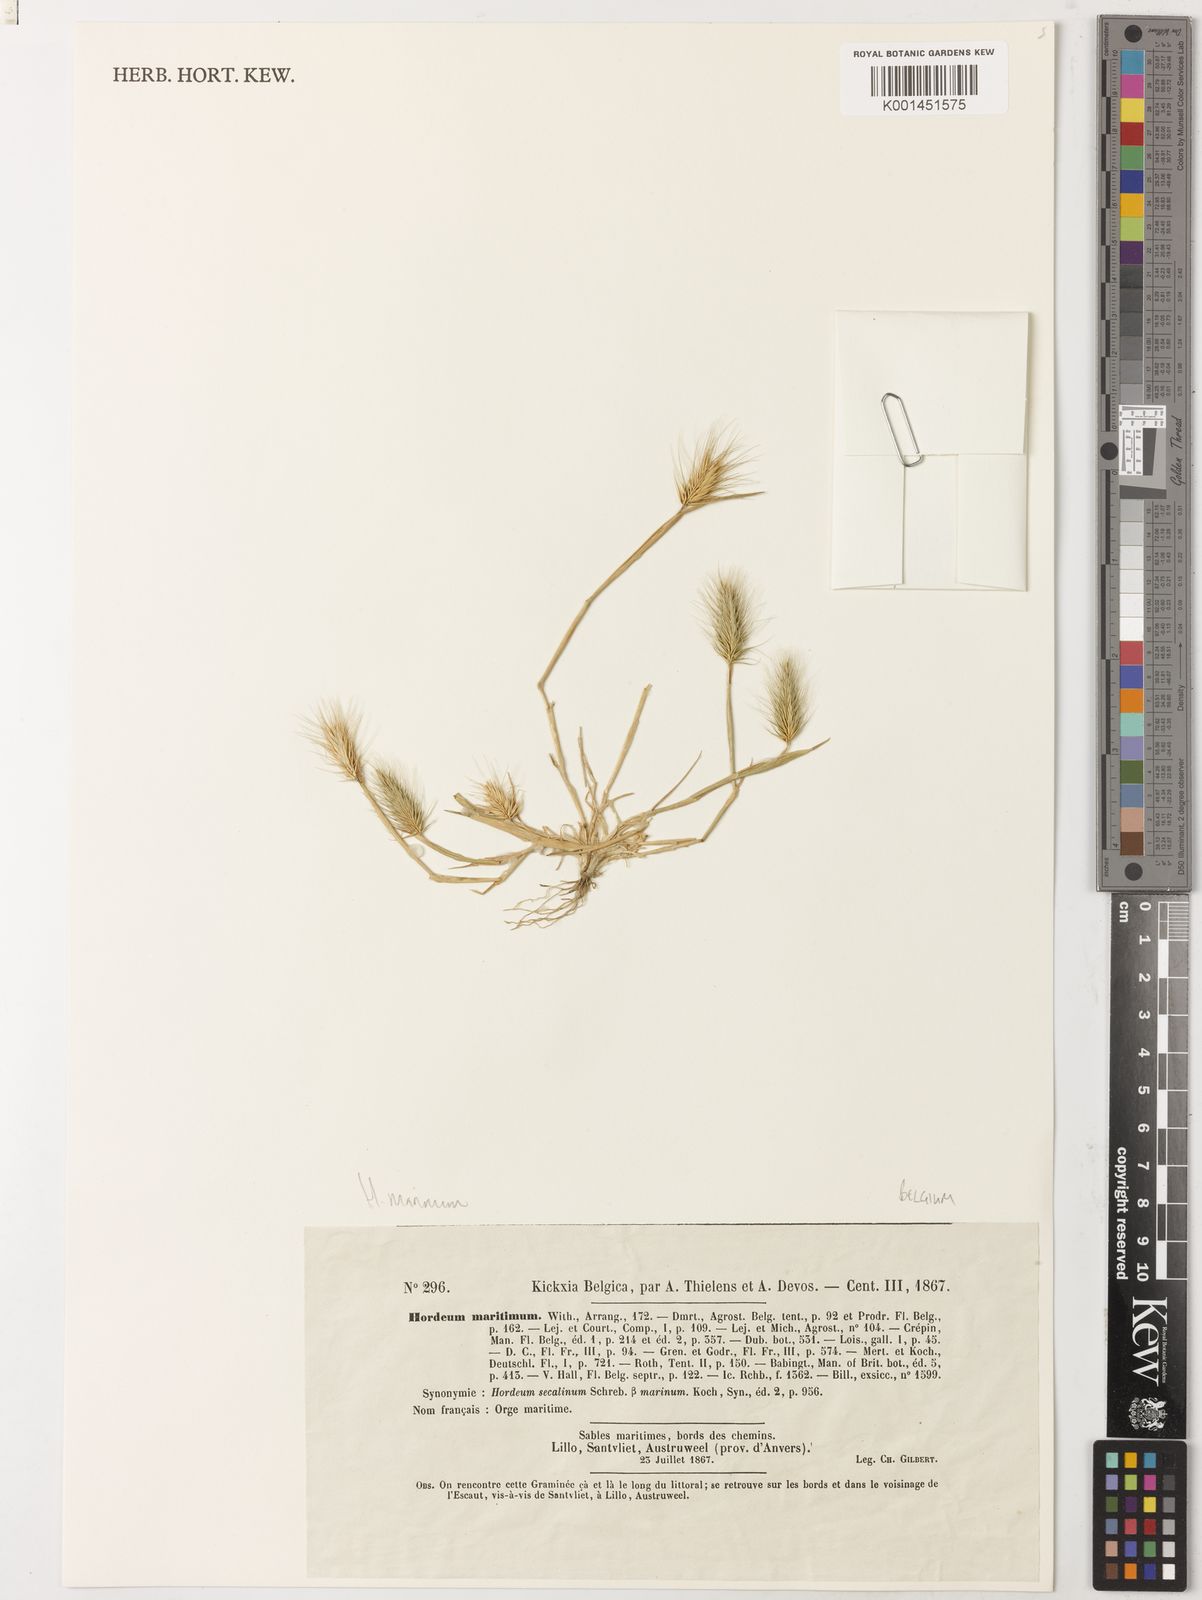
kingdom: Plantae
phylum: Tracheophyta
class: Liliopsida
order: Poales
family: Poaceae
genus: Hordeum
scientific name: Hordeum marinum
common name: Sea barley
